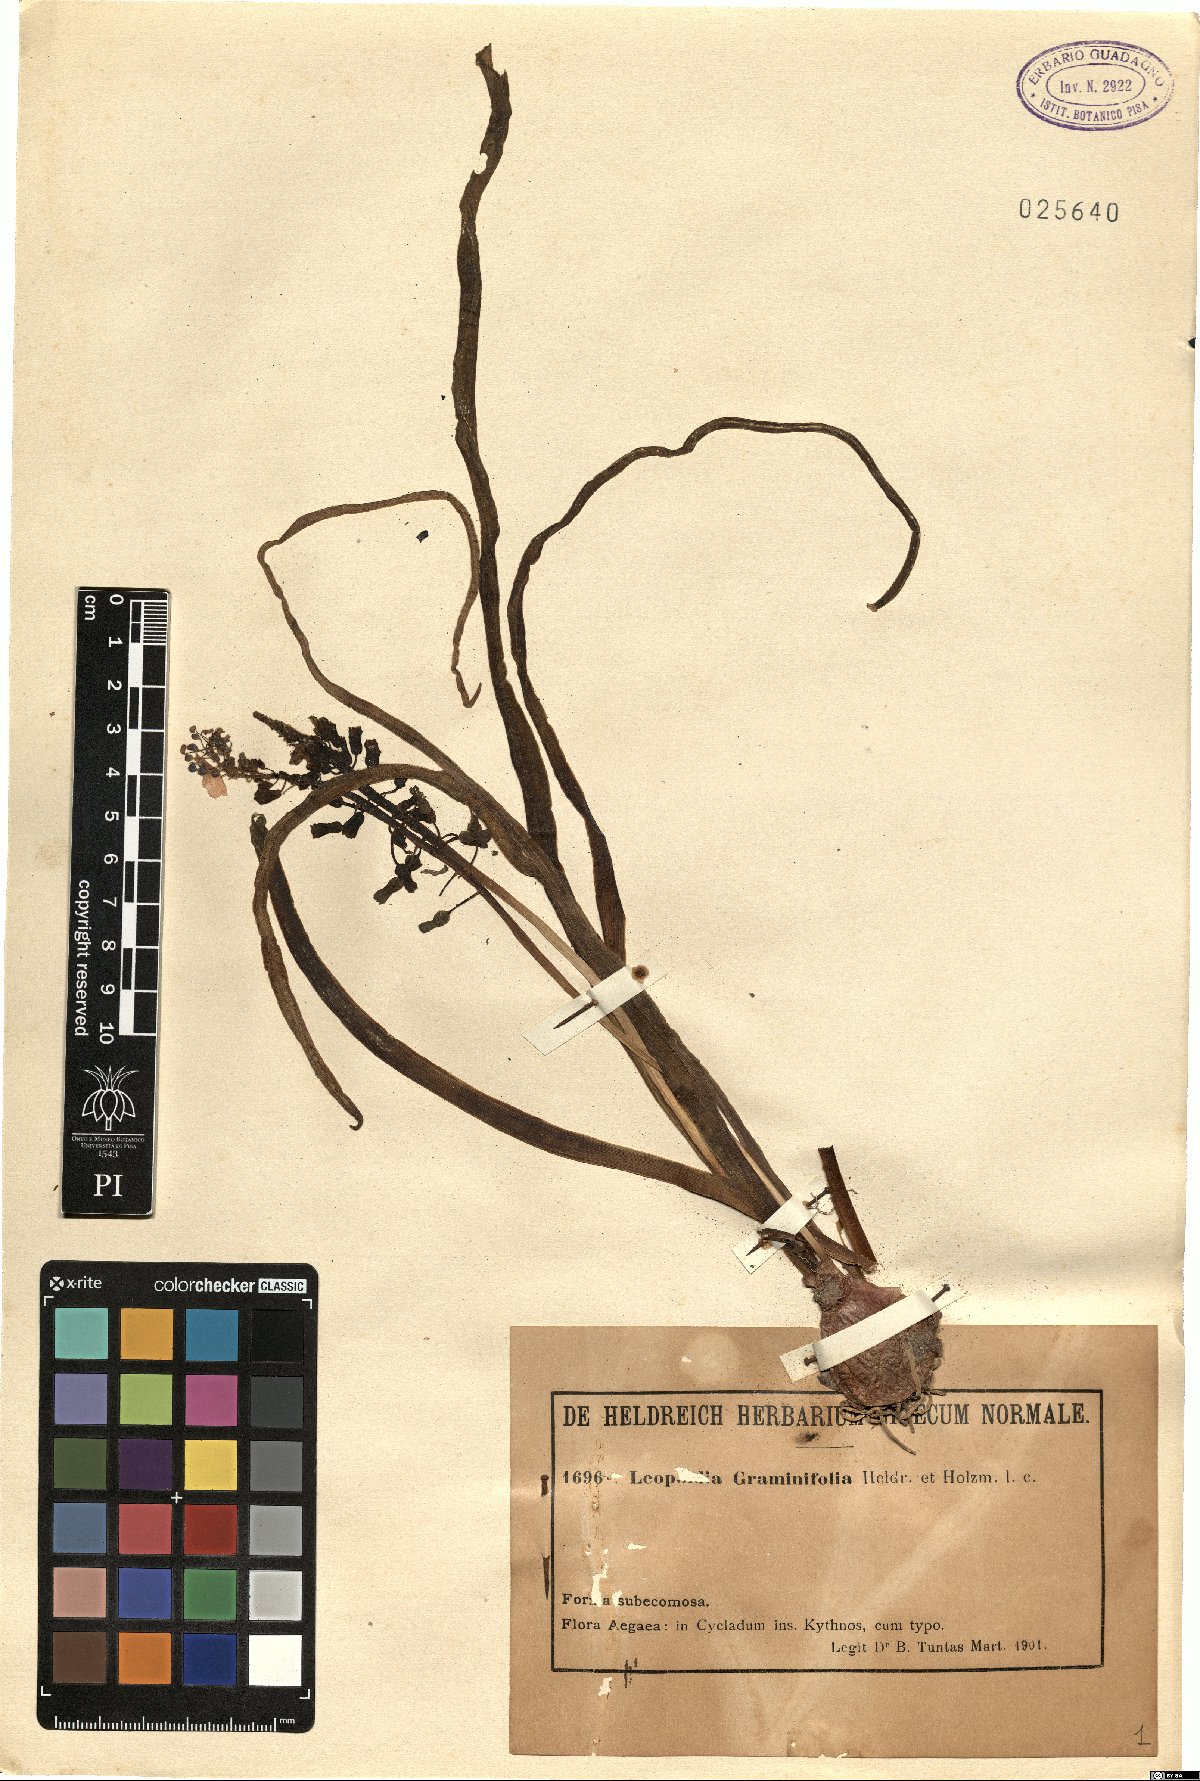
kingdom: Plantae
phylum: Tracheophyta
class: Liliopsida
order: Asparagales
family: Asparagaceae
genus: Muscari
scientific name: Muscari comosum
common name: Tassel hyacinth
